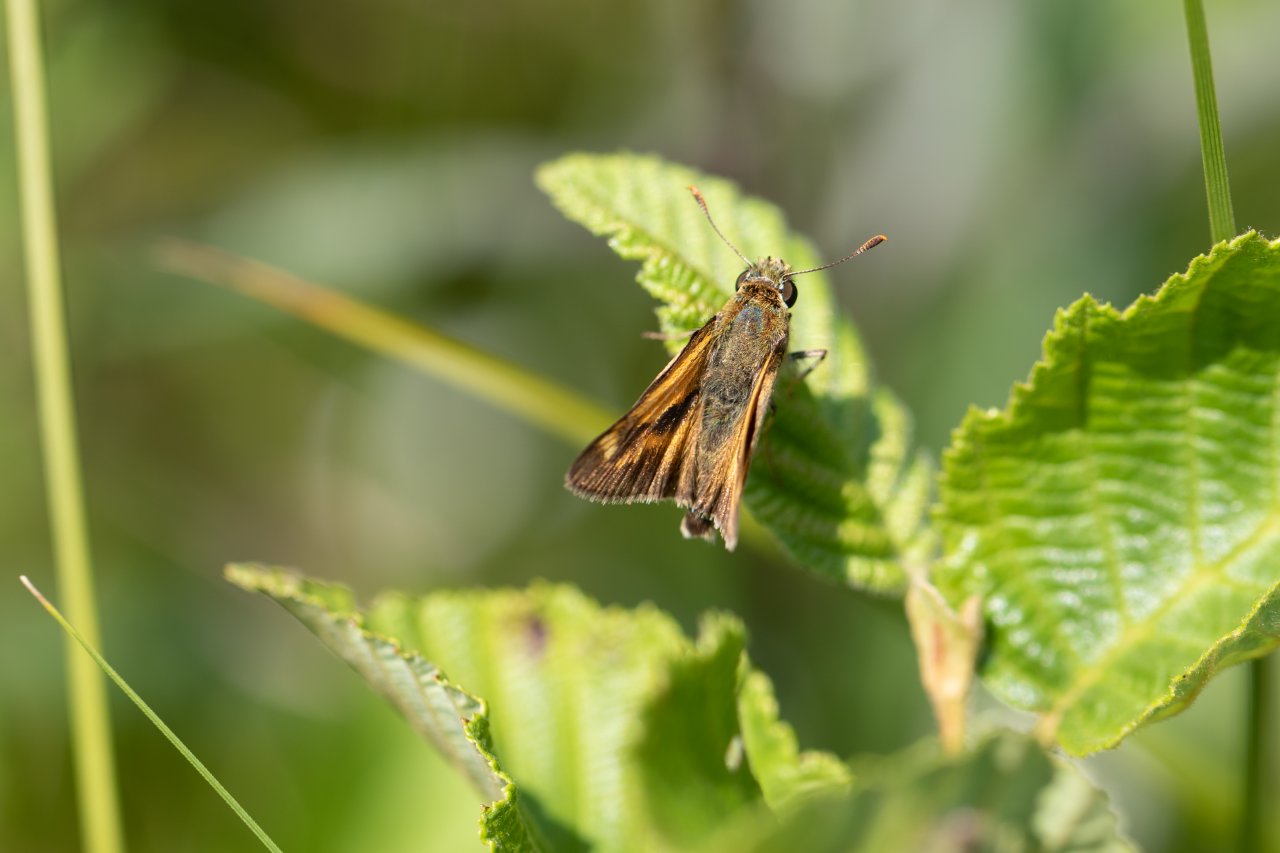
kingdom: Animalia
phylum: Arthropoda
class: Insecta
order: Lepidoptera
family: Hesperiidae
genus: Polites
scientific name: Polites
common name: Long Dash Skipper
